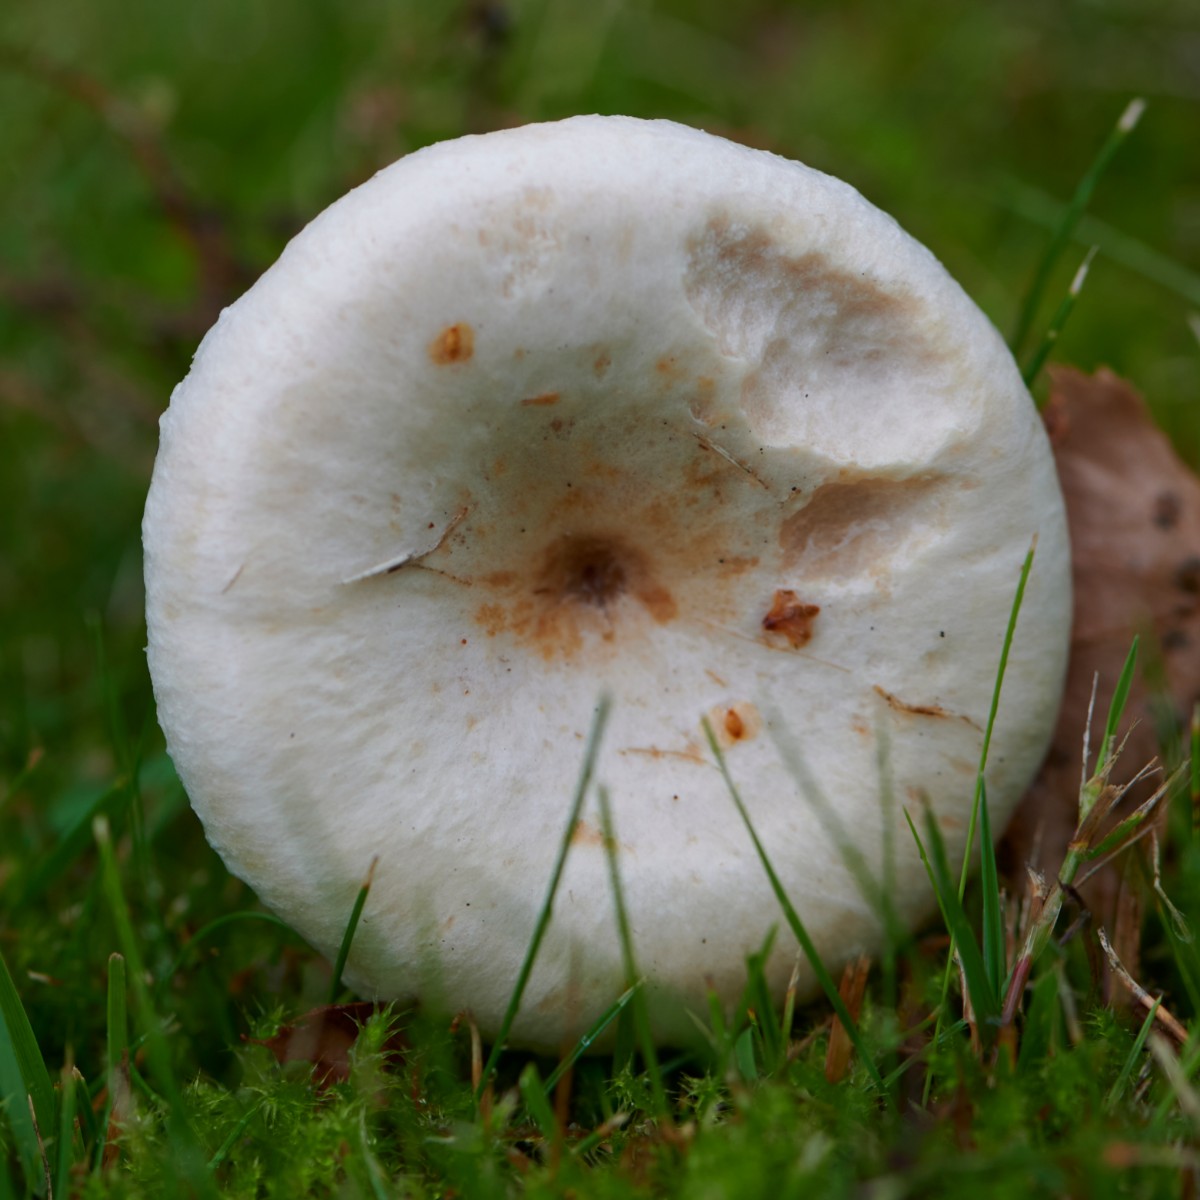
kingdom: Fungi
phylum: Basidiomycota
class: Agaricomycetes
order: Russulales
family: Russulaceae
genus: Lactarius
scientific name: Lactarius pubescens
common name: dunet mælkehat
